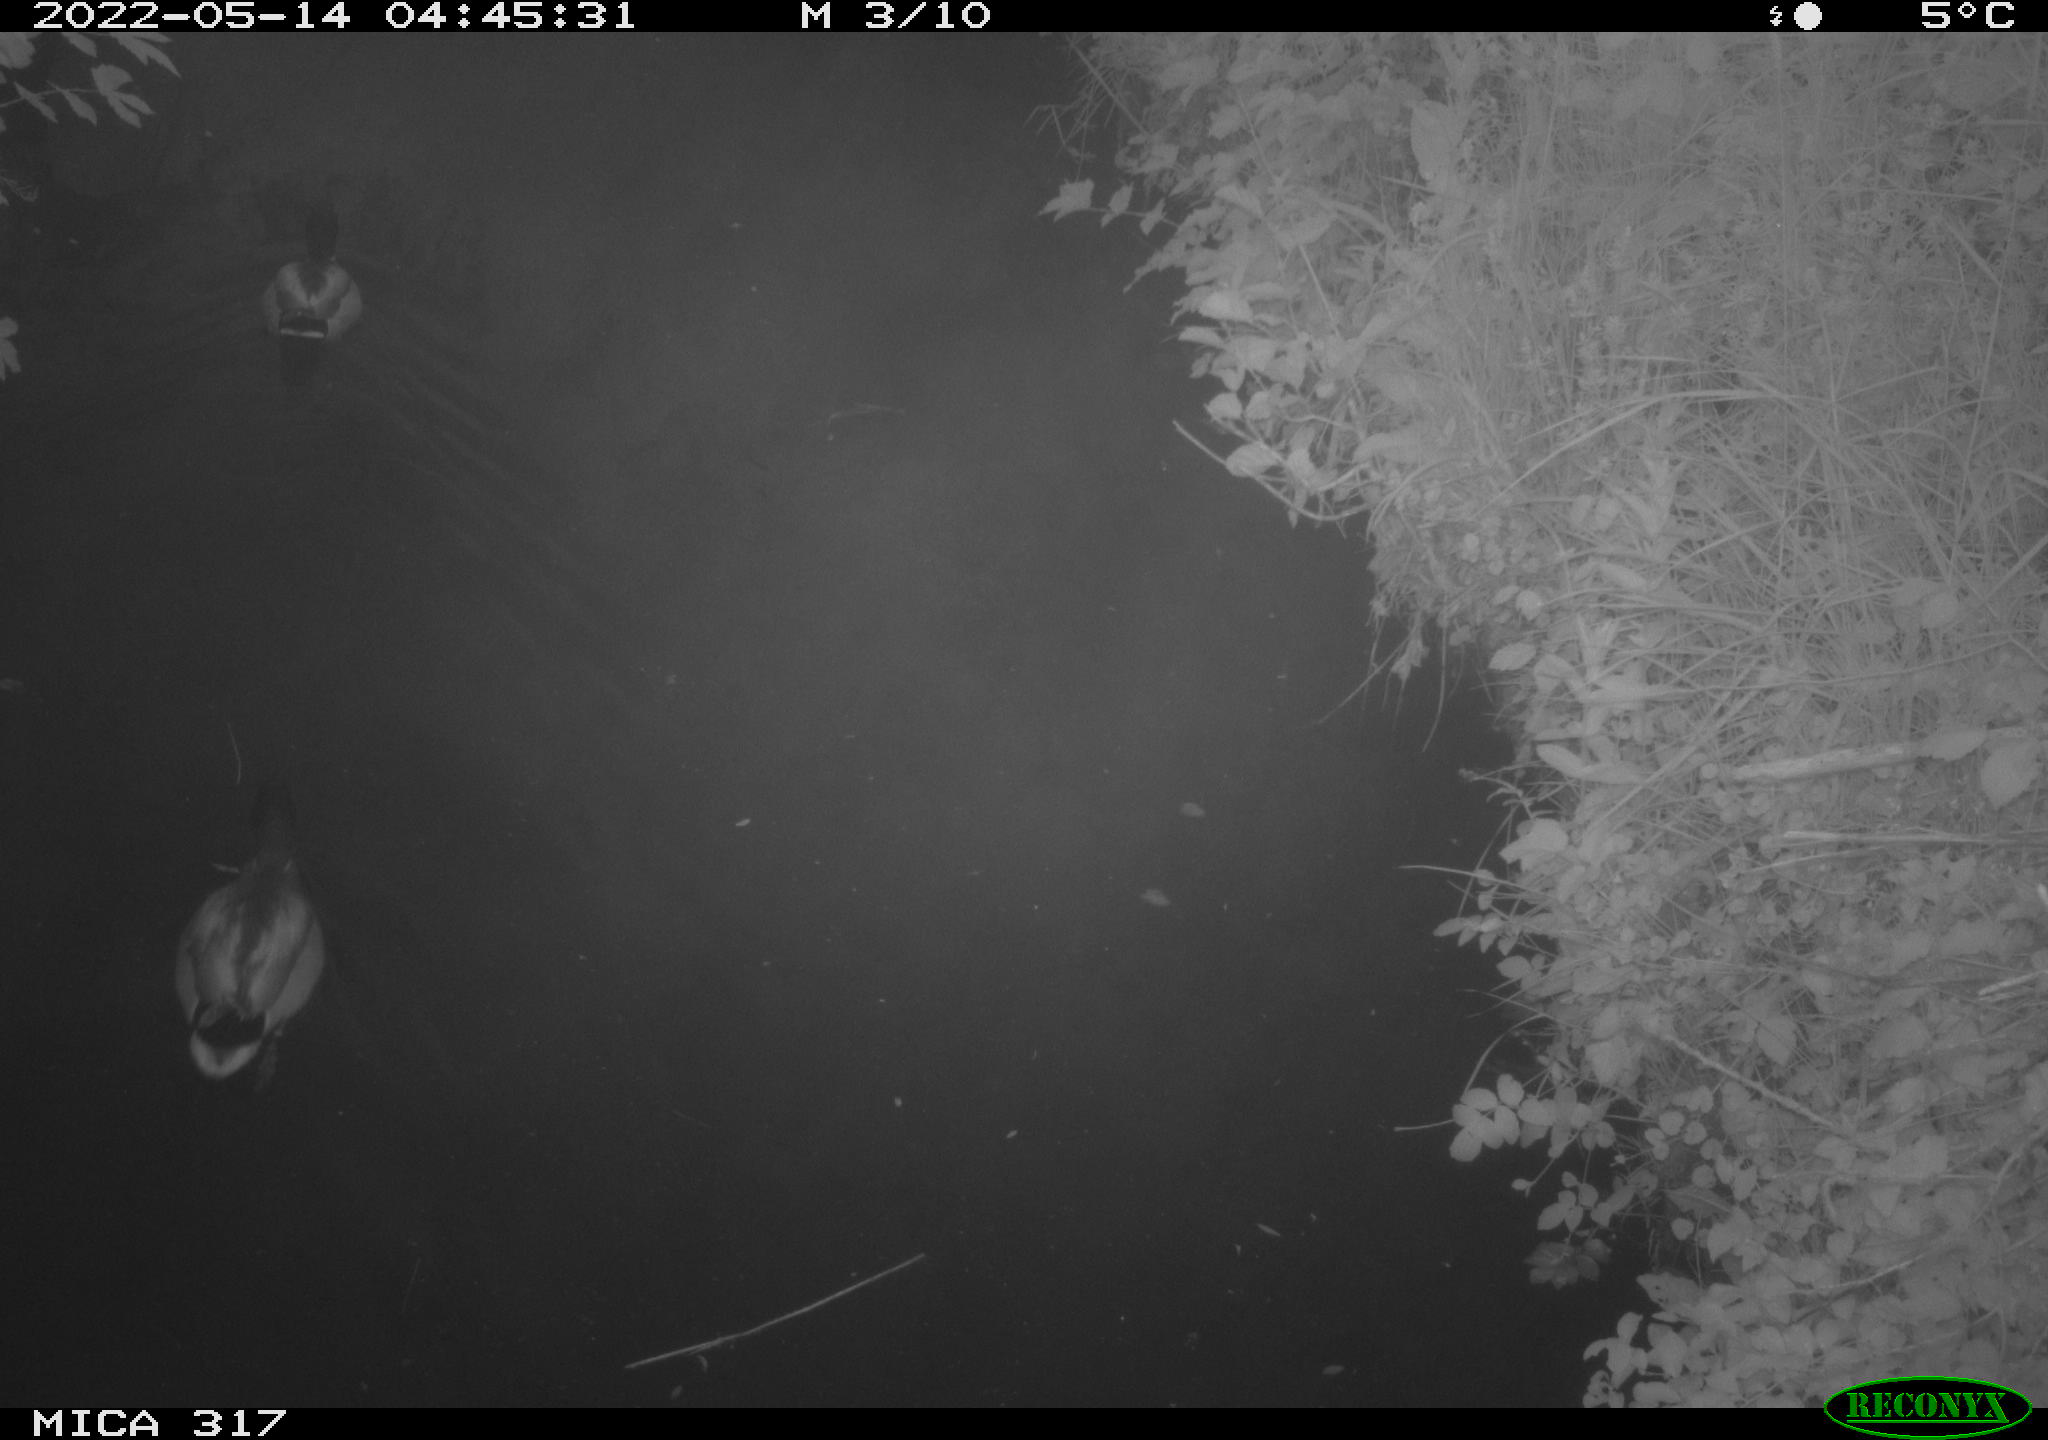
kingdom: Animalia
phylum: Chordata
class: Aves
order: Anseriformes
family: Anatidae
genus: Anas
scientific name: Anas
